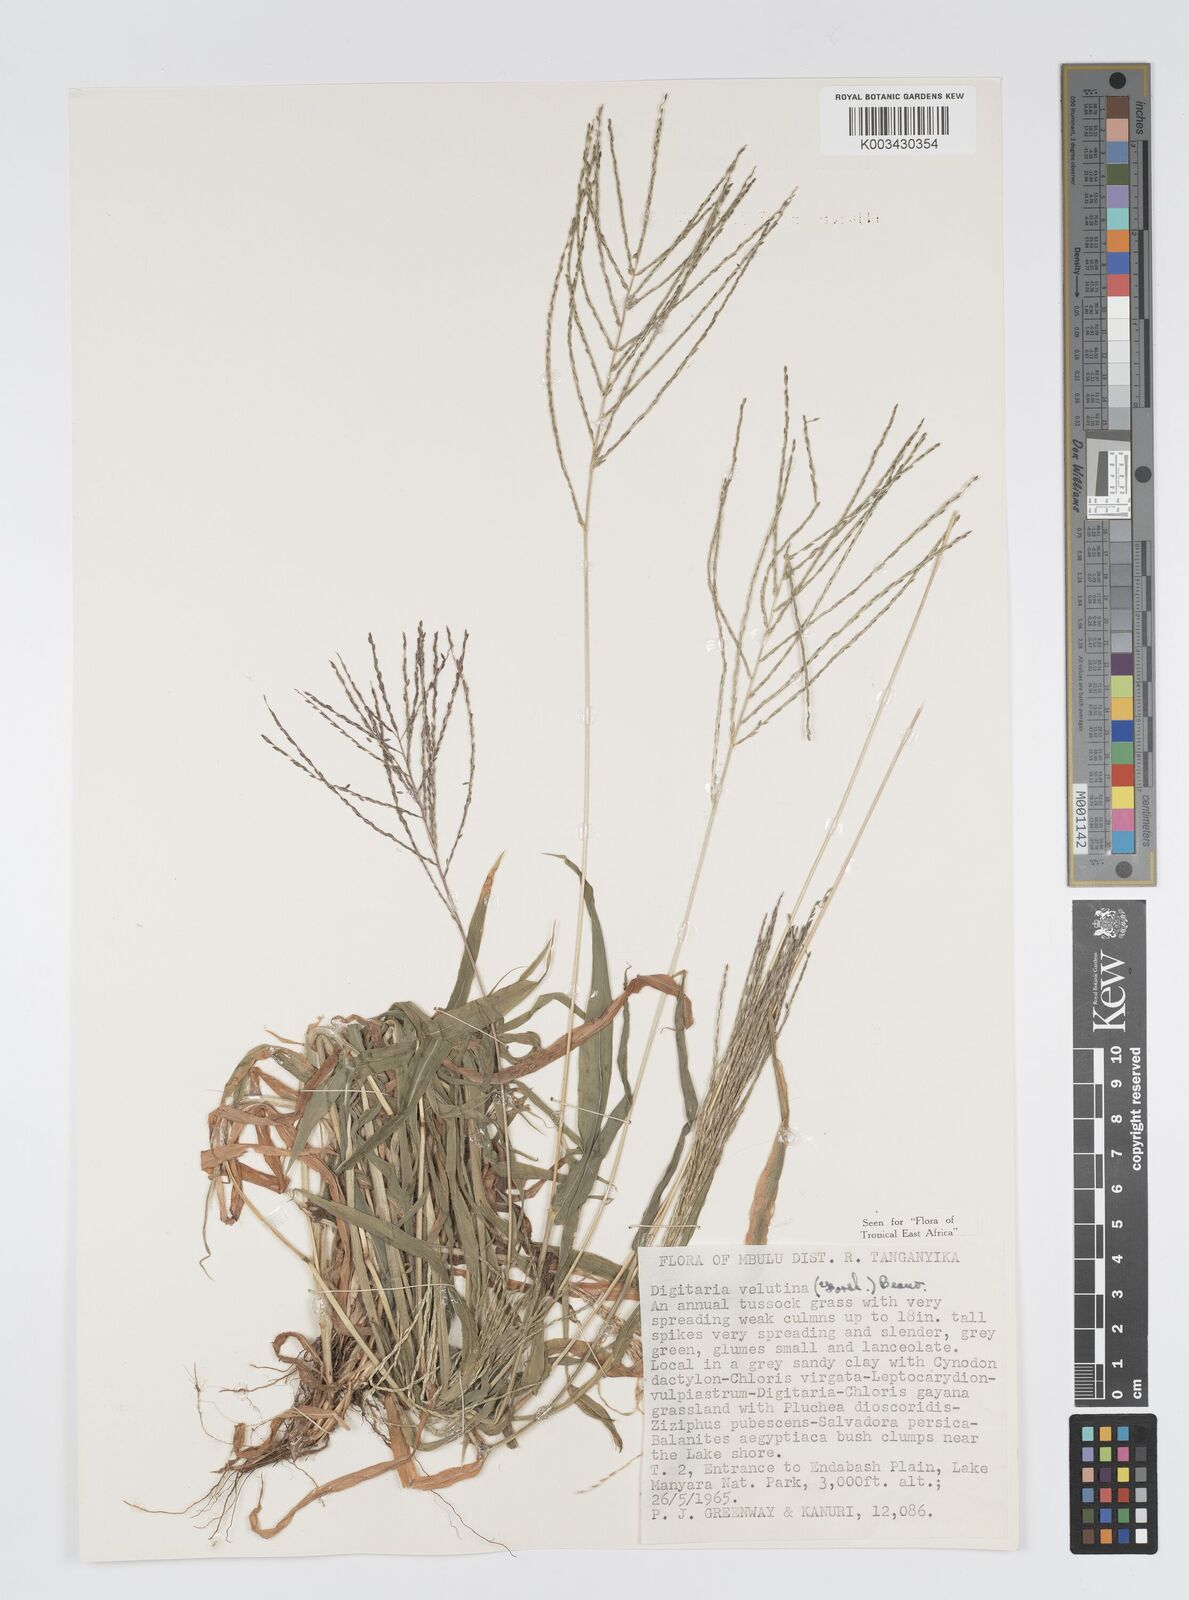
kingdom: Plantae
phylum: Tracheophyta
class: Liliopsida
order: Poales
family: Poaceae
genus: Digitaria
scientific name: Digitaria velutina
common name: Long-plume finger grass
